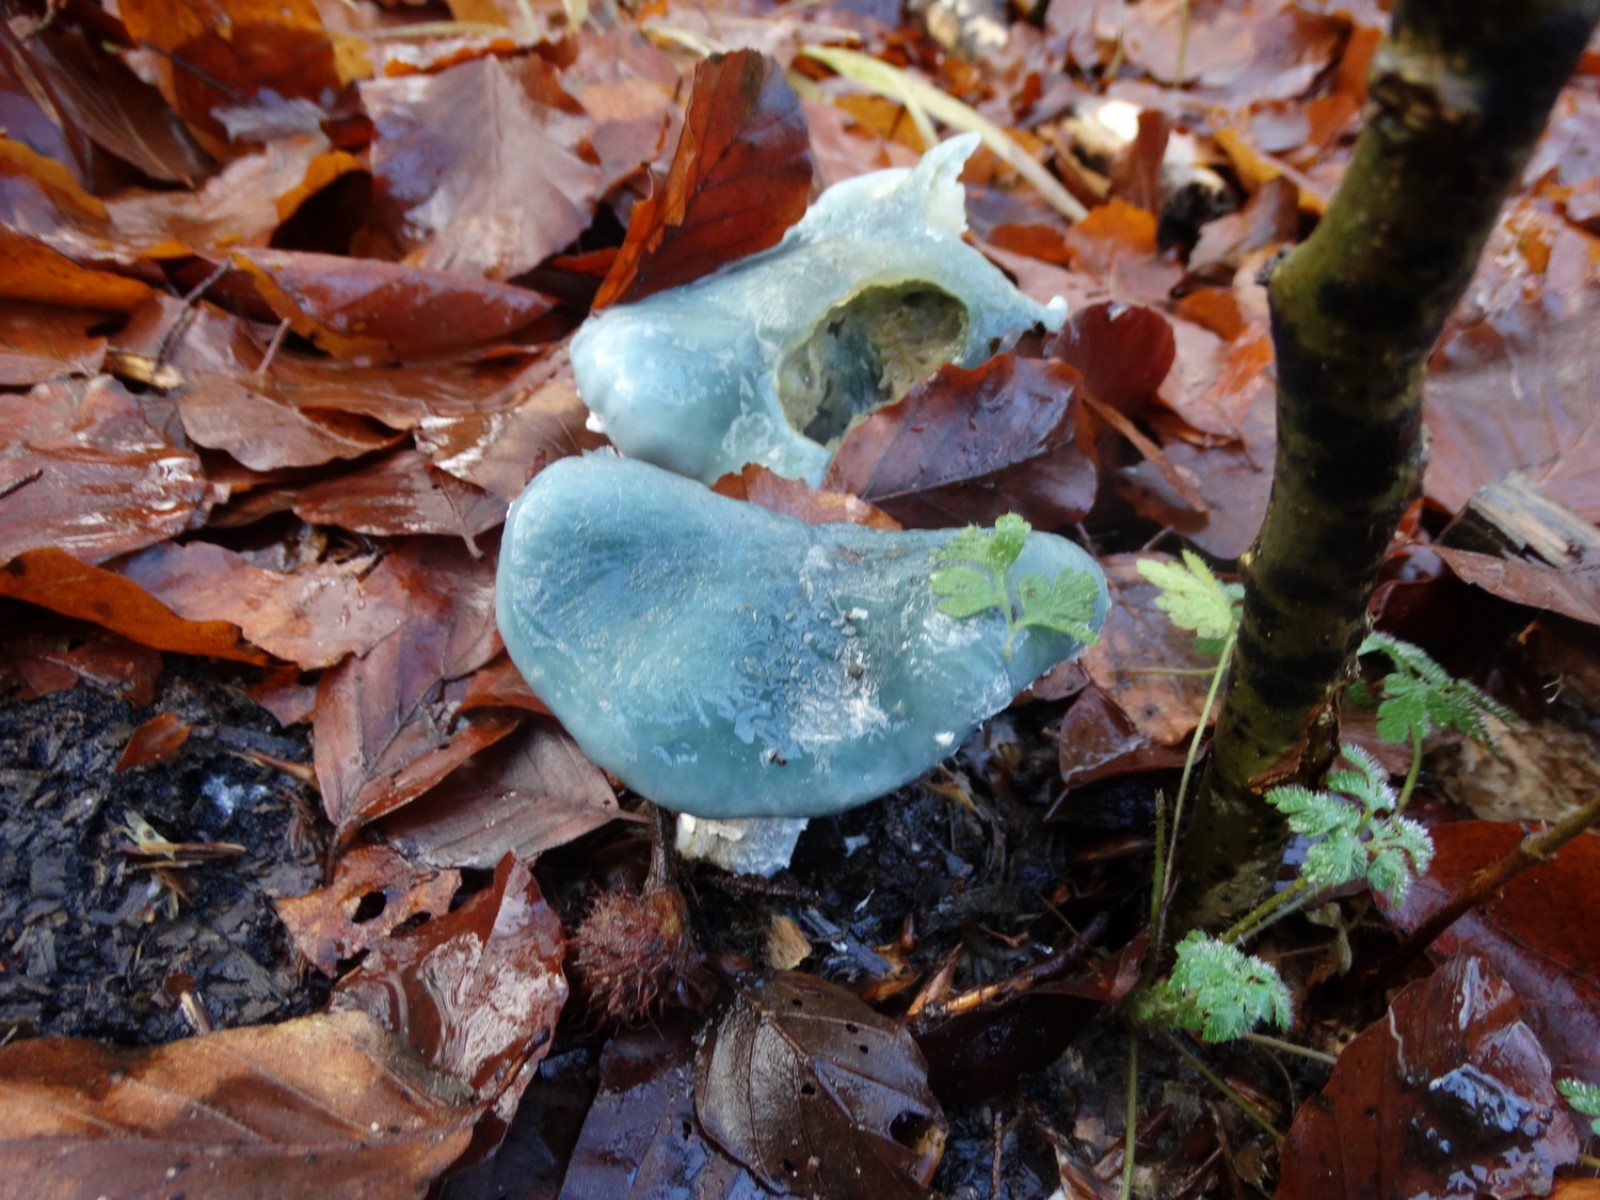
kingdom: Fungi
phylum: Basidiomycota
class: Agaricomycetes
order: Agaricales
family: Strophariaceae
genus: Stropharia
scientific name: Stropharia cyanea
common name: blågrøn bredblad
